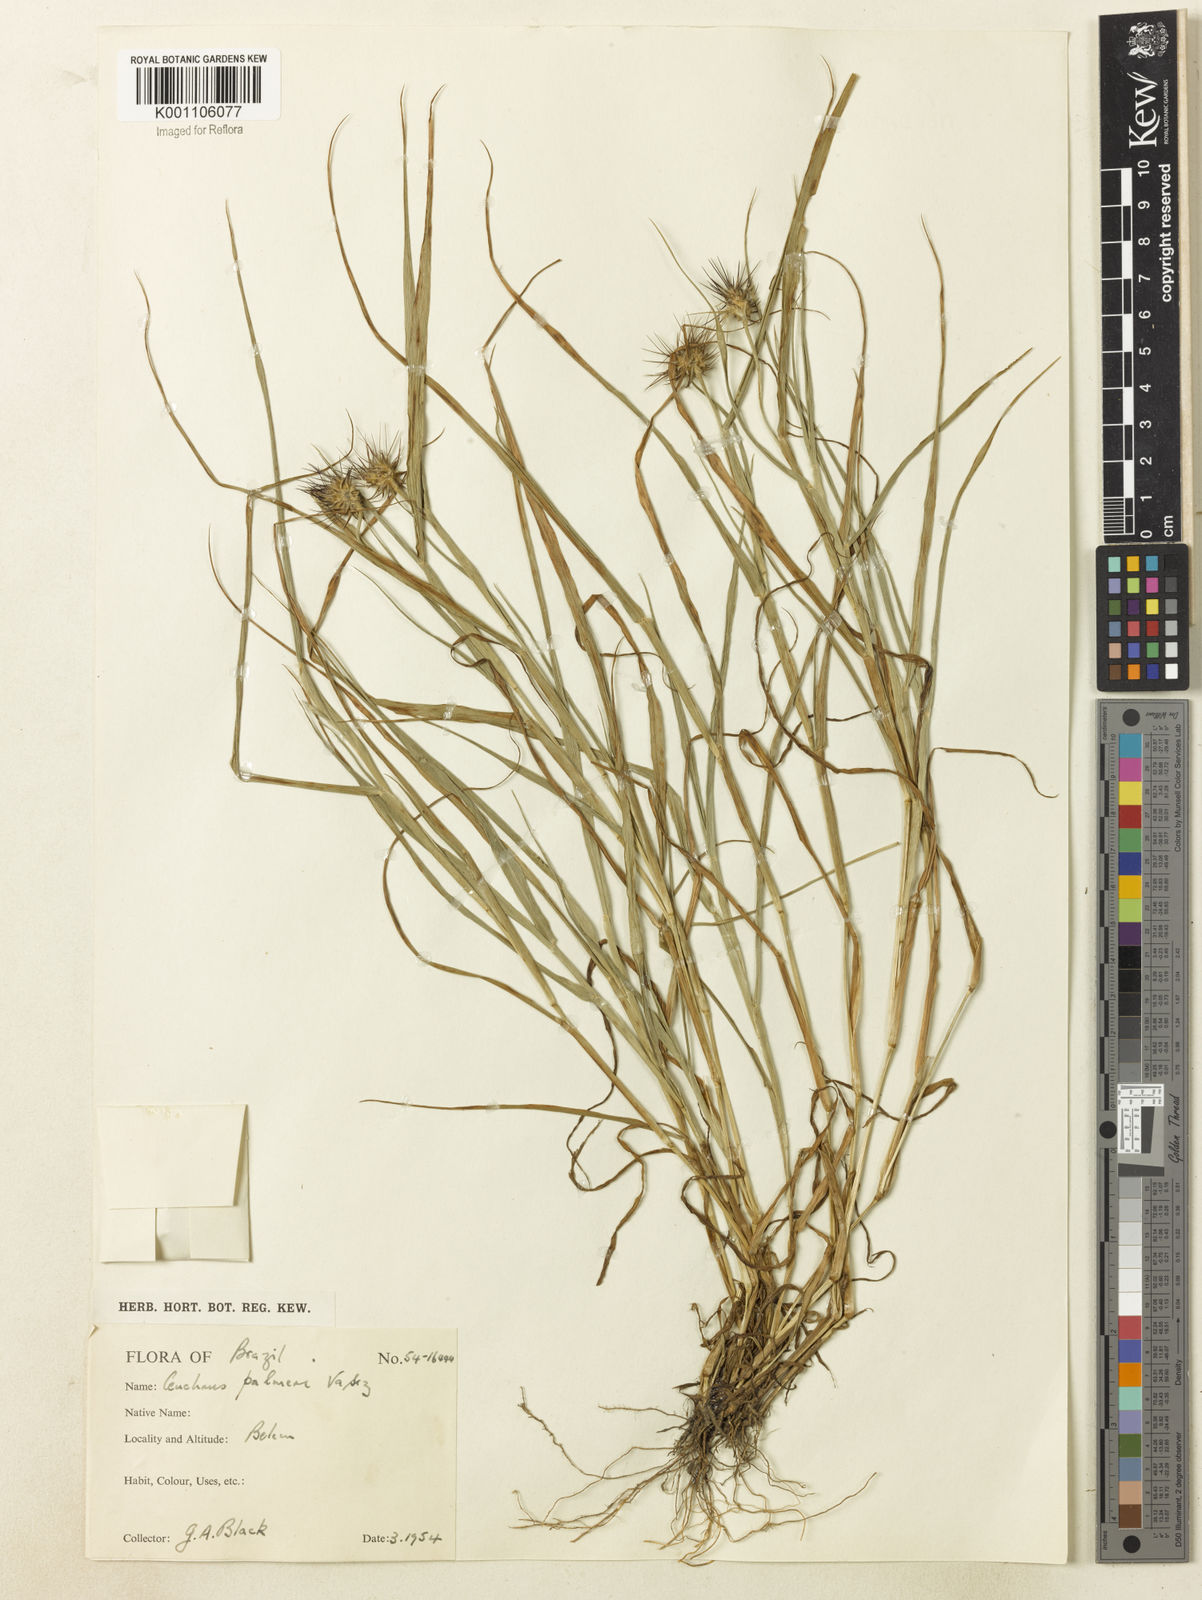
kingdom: Plantae
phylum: Tracheophyta
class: Liliopsida
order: Poales
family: Poaceae
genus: Cenchrus
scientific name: Cenchrus palmeri
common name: Giant sandbur
